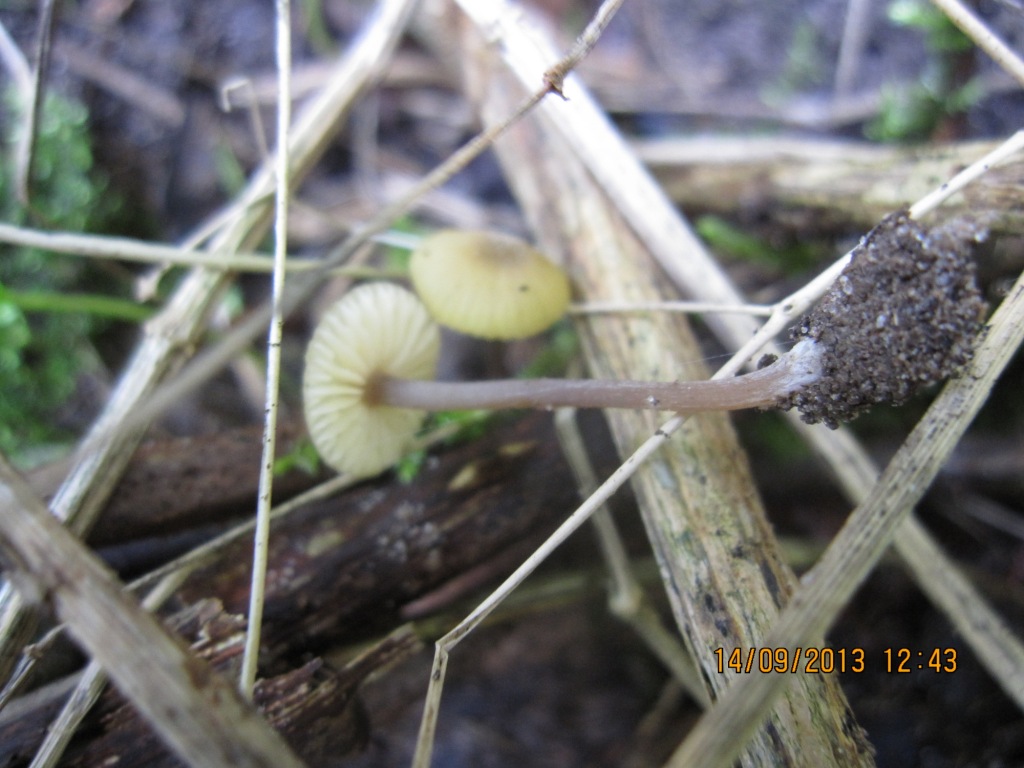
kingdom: Fungi
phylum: Basidiomycota
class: Agaricomycetes
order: Agaricales
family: Entolomataceae
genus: Entoloma
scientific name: Entoloma pleopodium
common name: duftende rødblad
